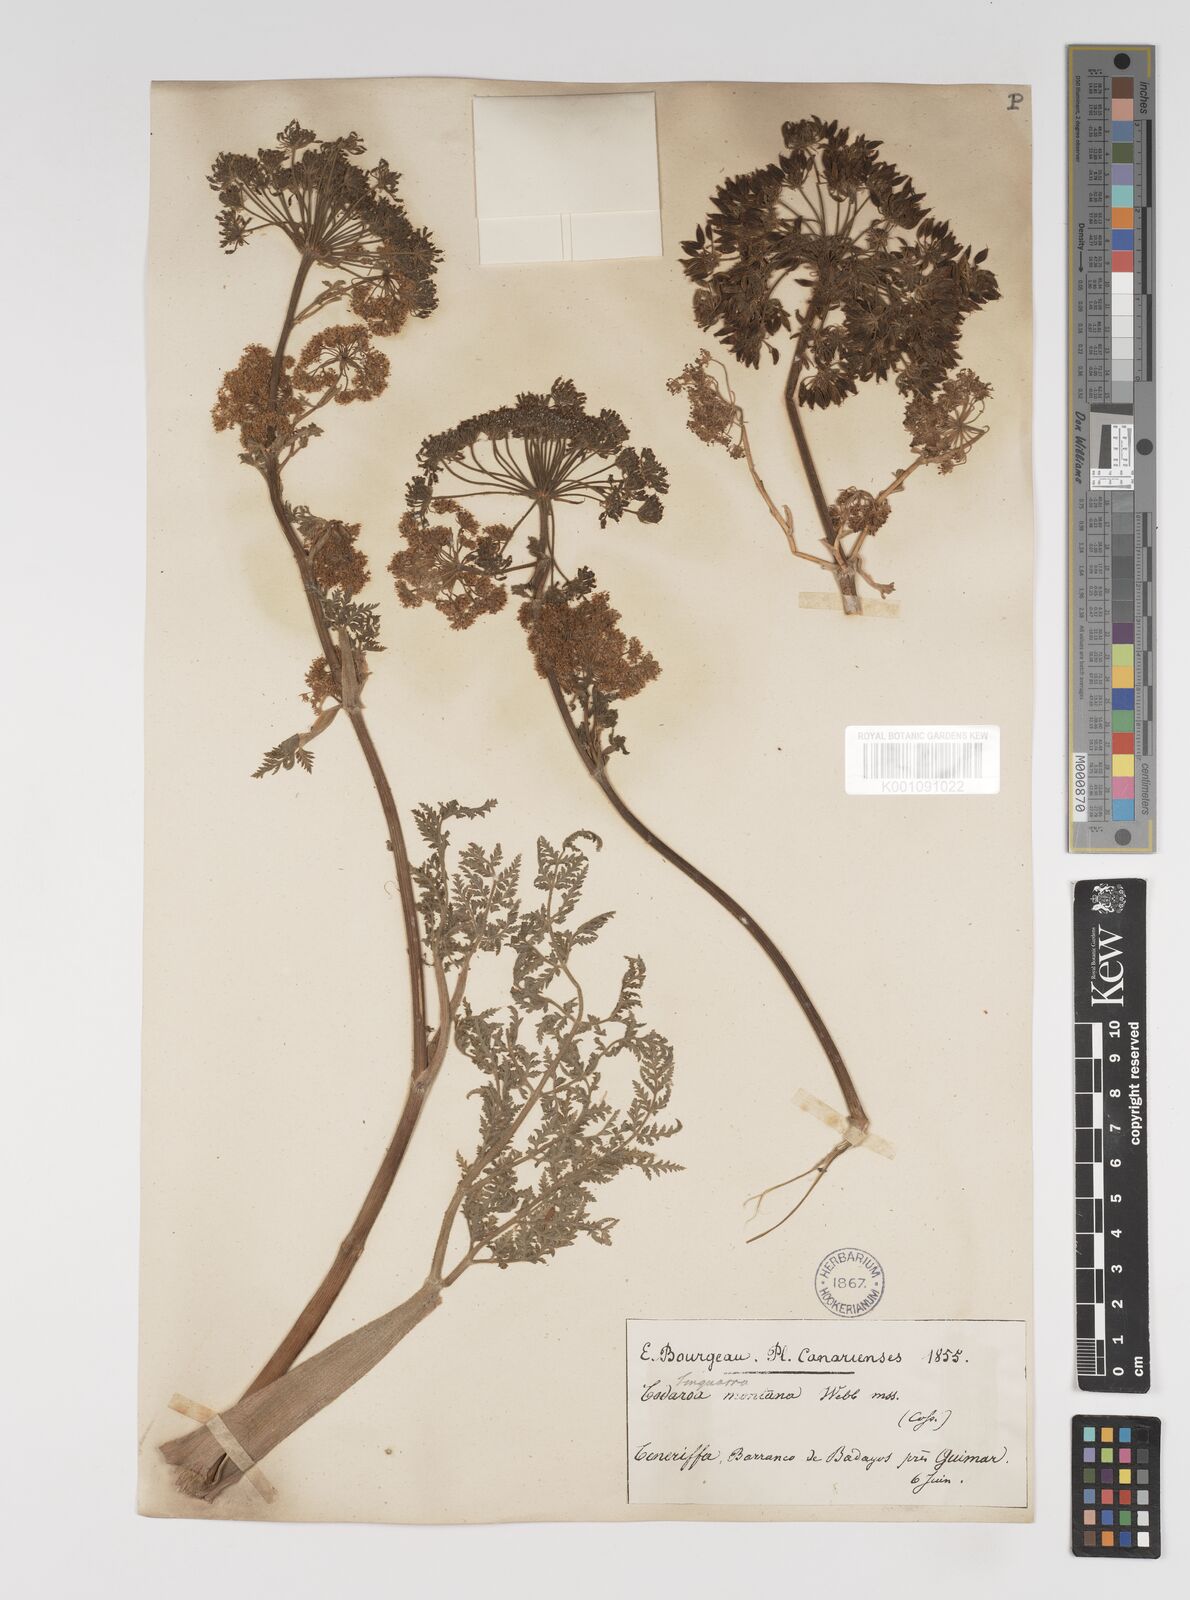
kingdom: Plantae
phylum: Tracheophyta
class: Magnoliopsida
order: Apiales
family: Apiaceae
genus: Athamanta
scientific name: Athamanta montana
